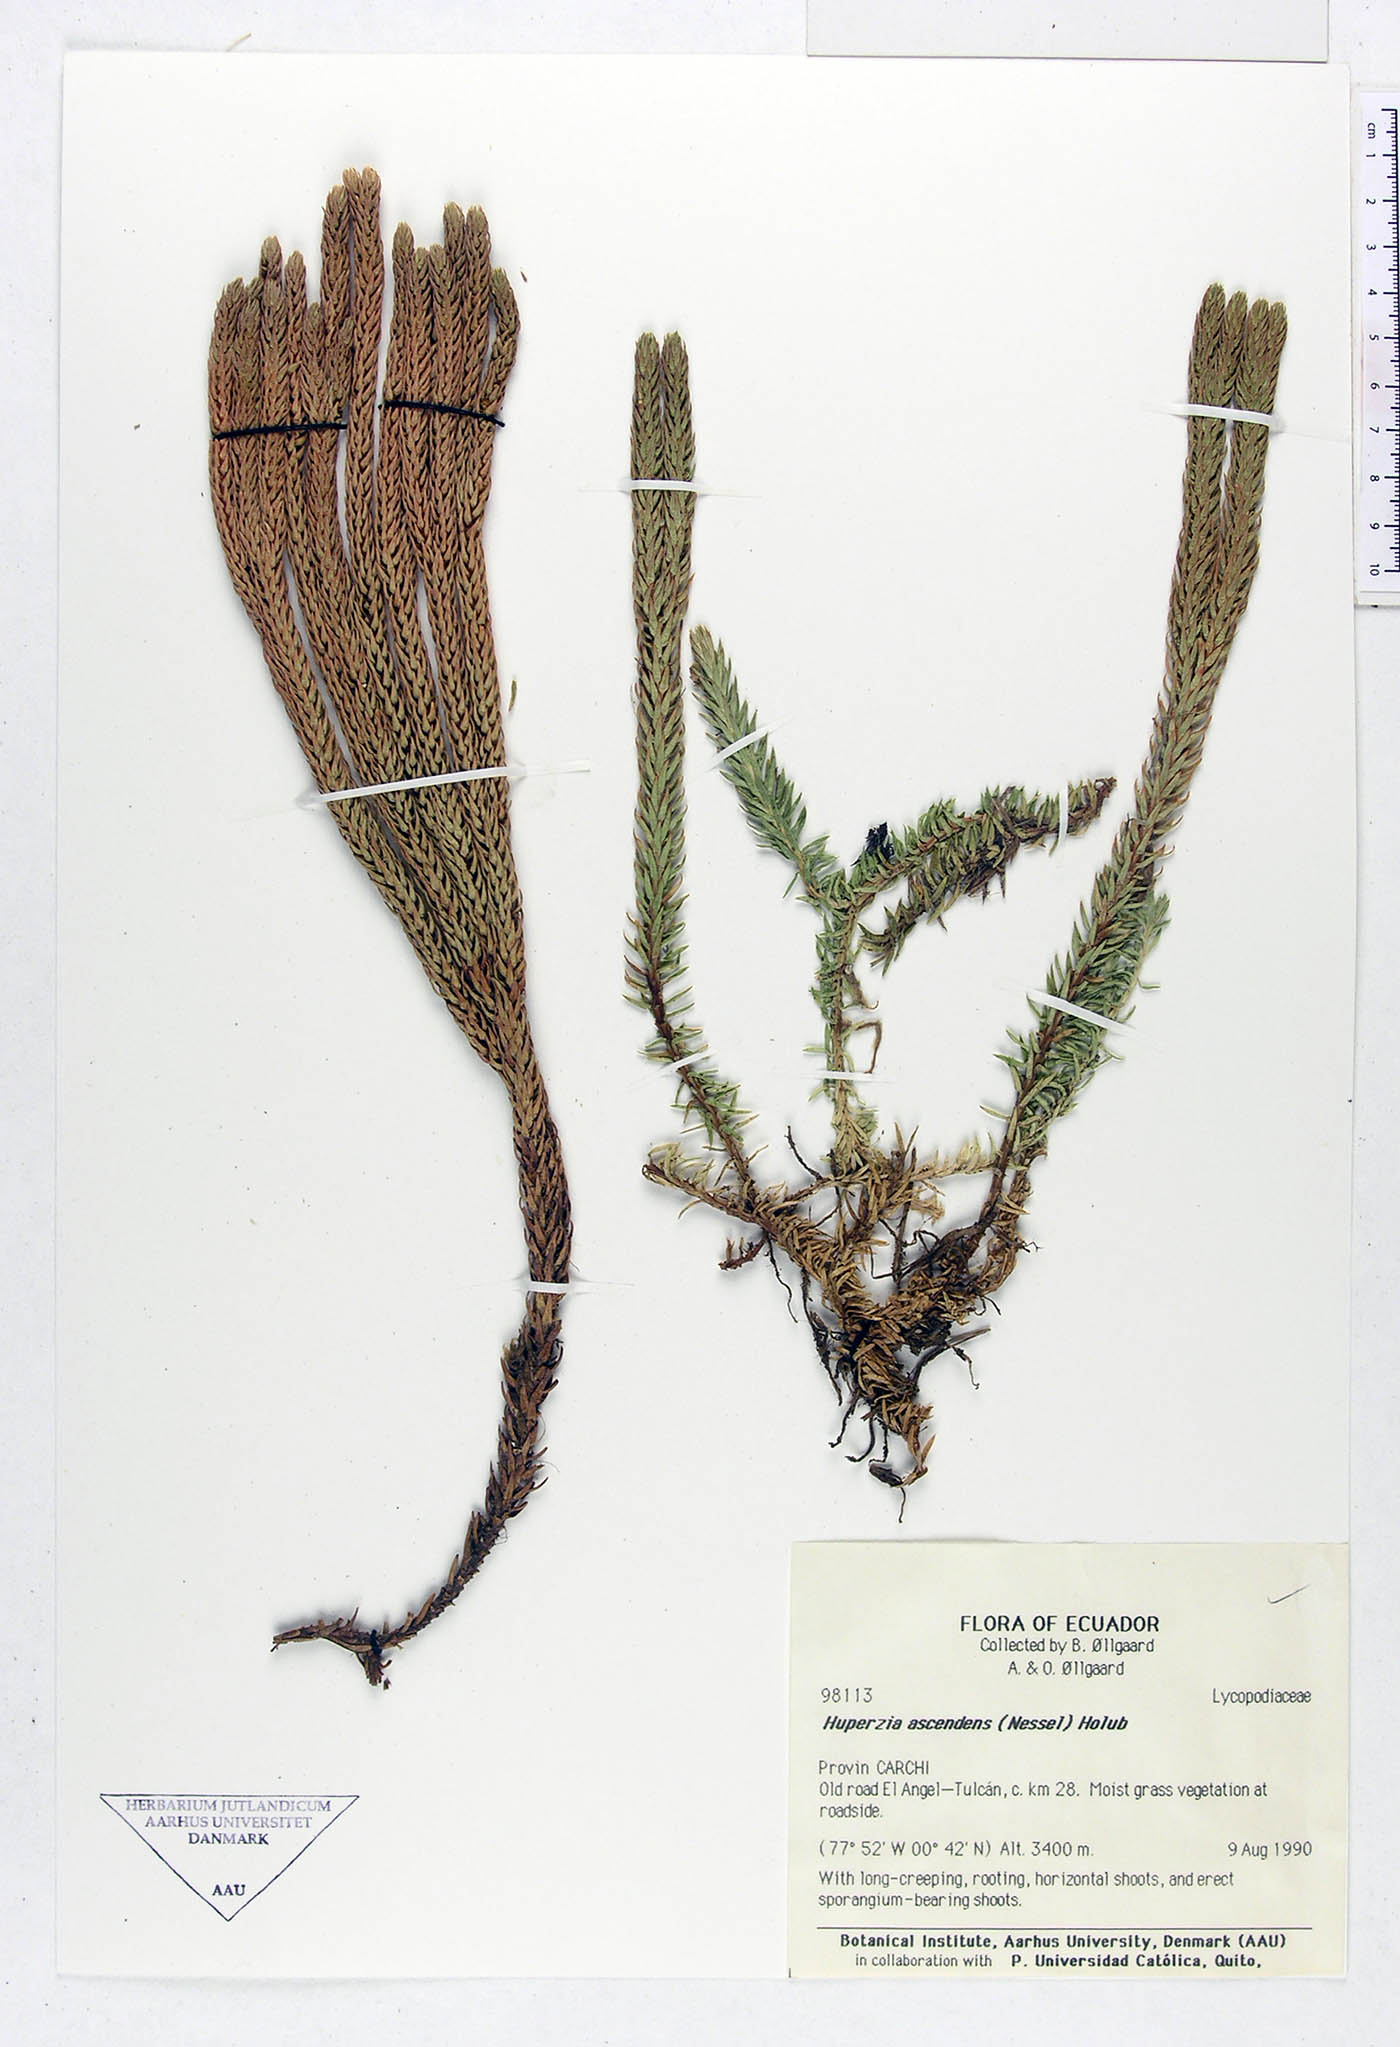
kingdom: Plantae
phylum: Tracheophyta
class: Lycopodiopsida
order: Lycopodiales
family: Lycopodiaceae
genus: Phlegmariurus
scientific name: Phlegmariurus ascendens
